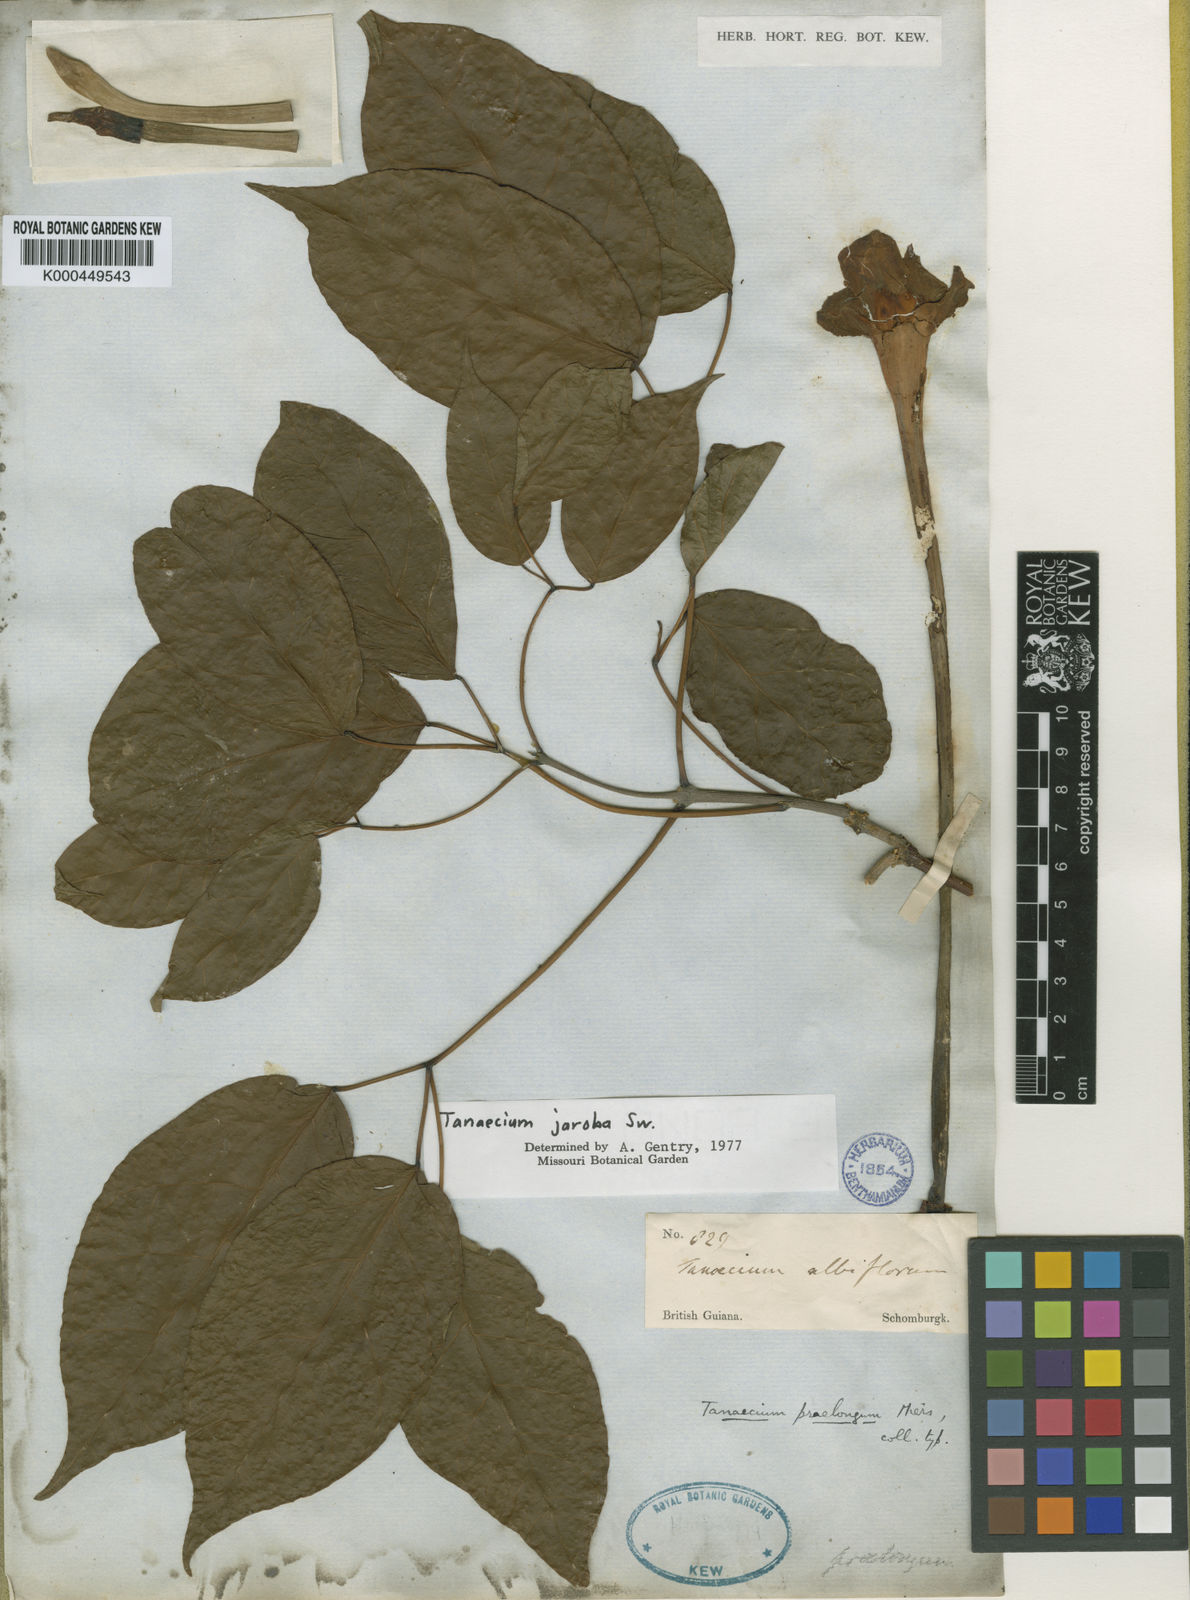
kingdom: Plantae
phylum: Tracheophyta
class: Magnoliopsida
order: Lamiales
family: Bignoniaceae
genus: Tanaecium
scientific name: Tanaecium jaroba
